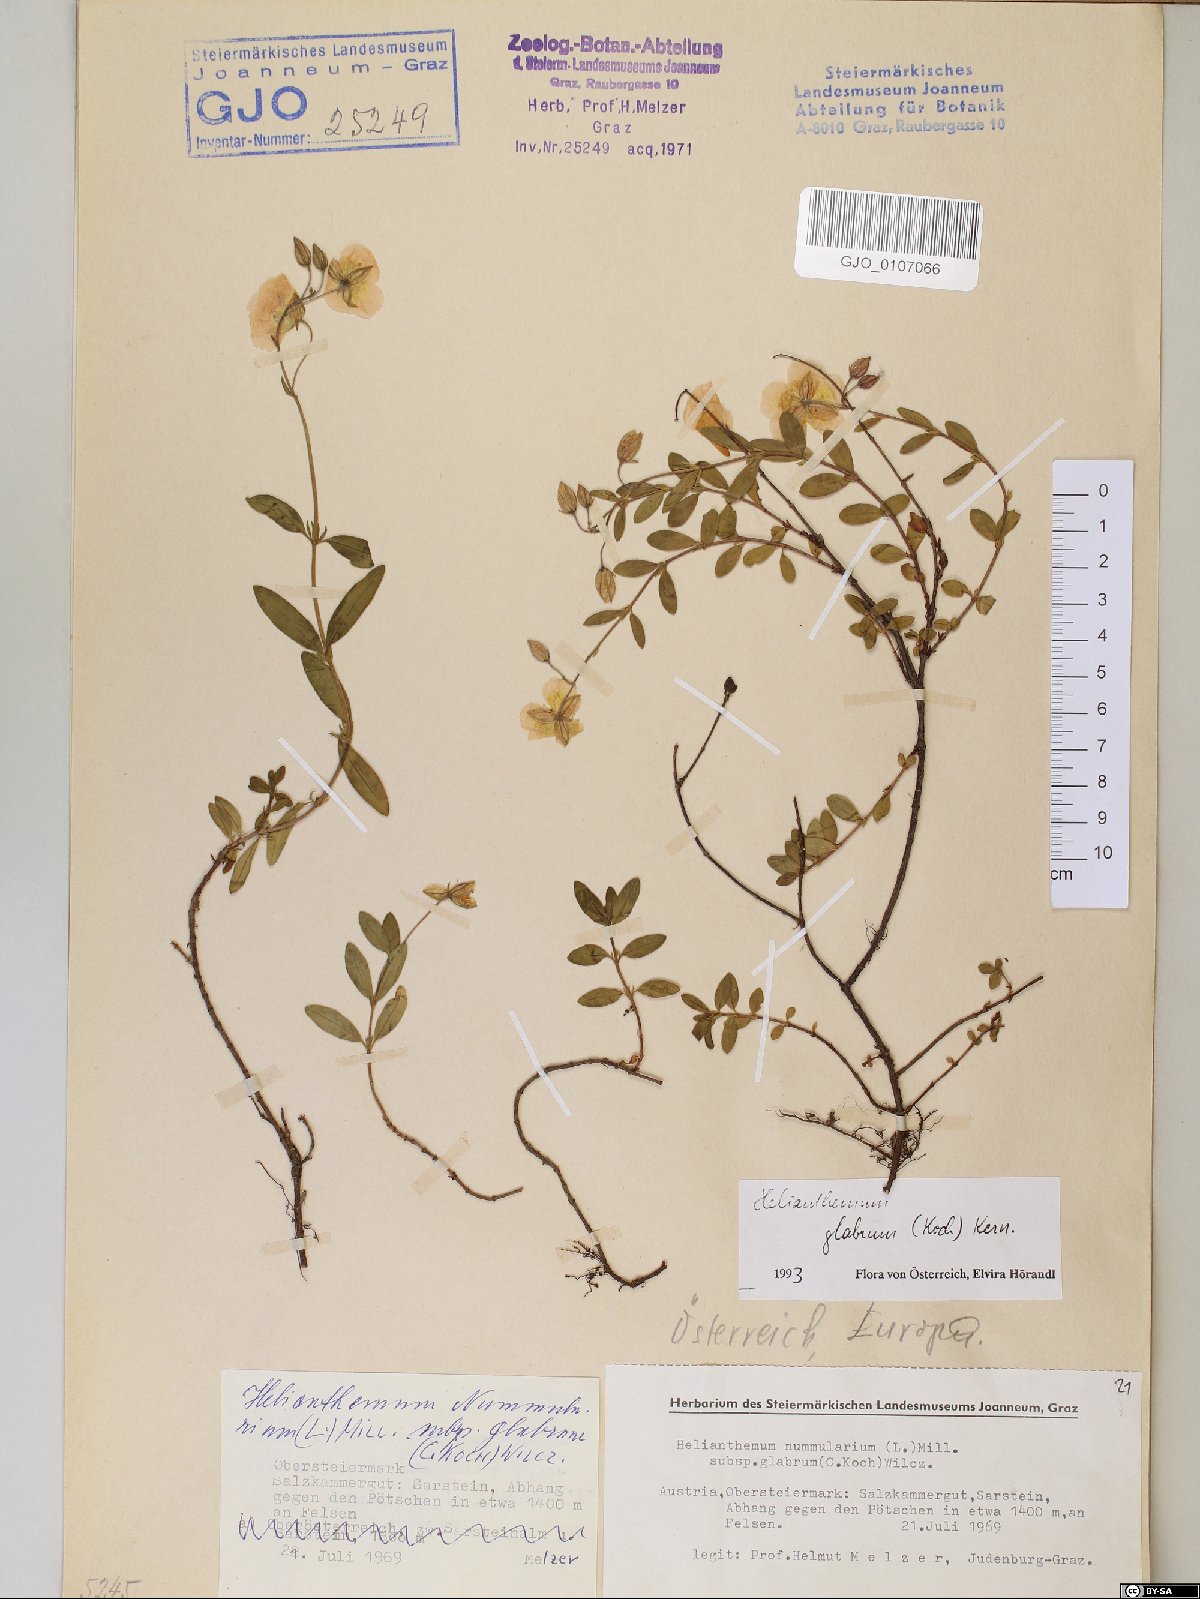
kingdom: Plantae
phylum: Tracheophyta
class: Magnoliopsida
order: Malvales
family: Cistaceae
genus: Helianthemum
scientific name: Helianthemum nummularium
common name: Common rock-rose
